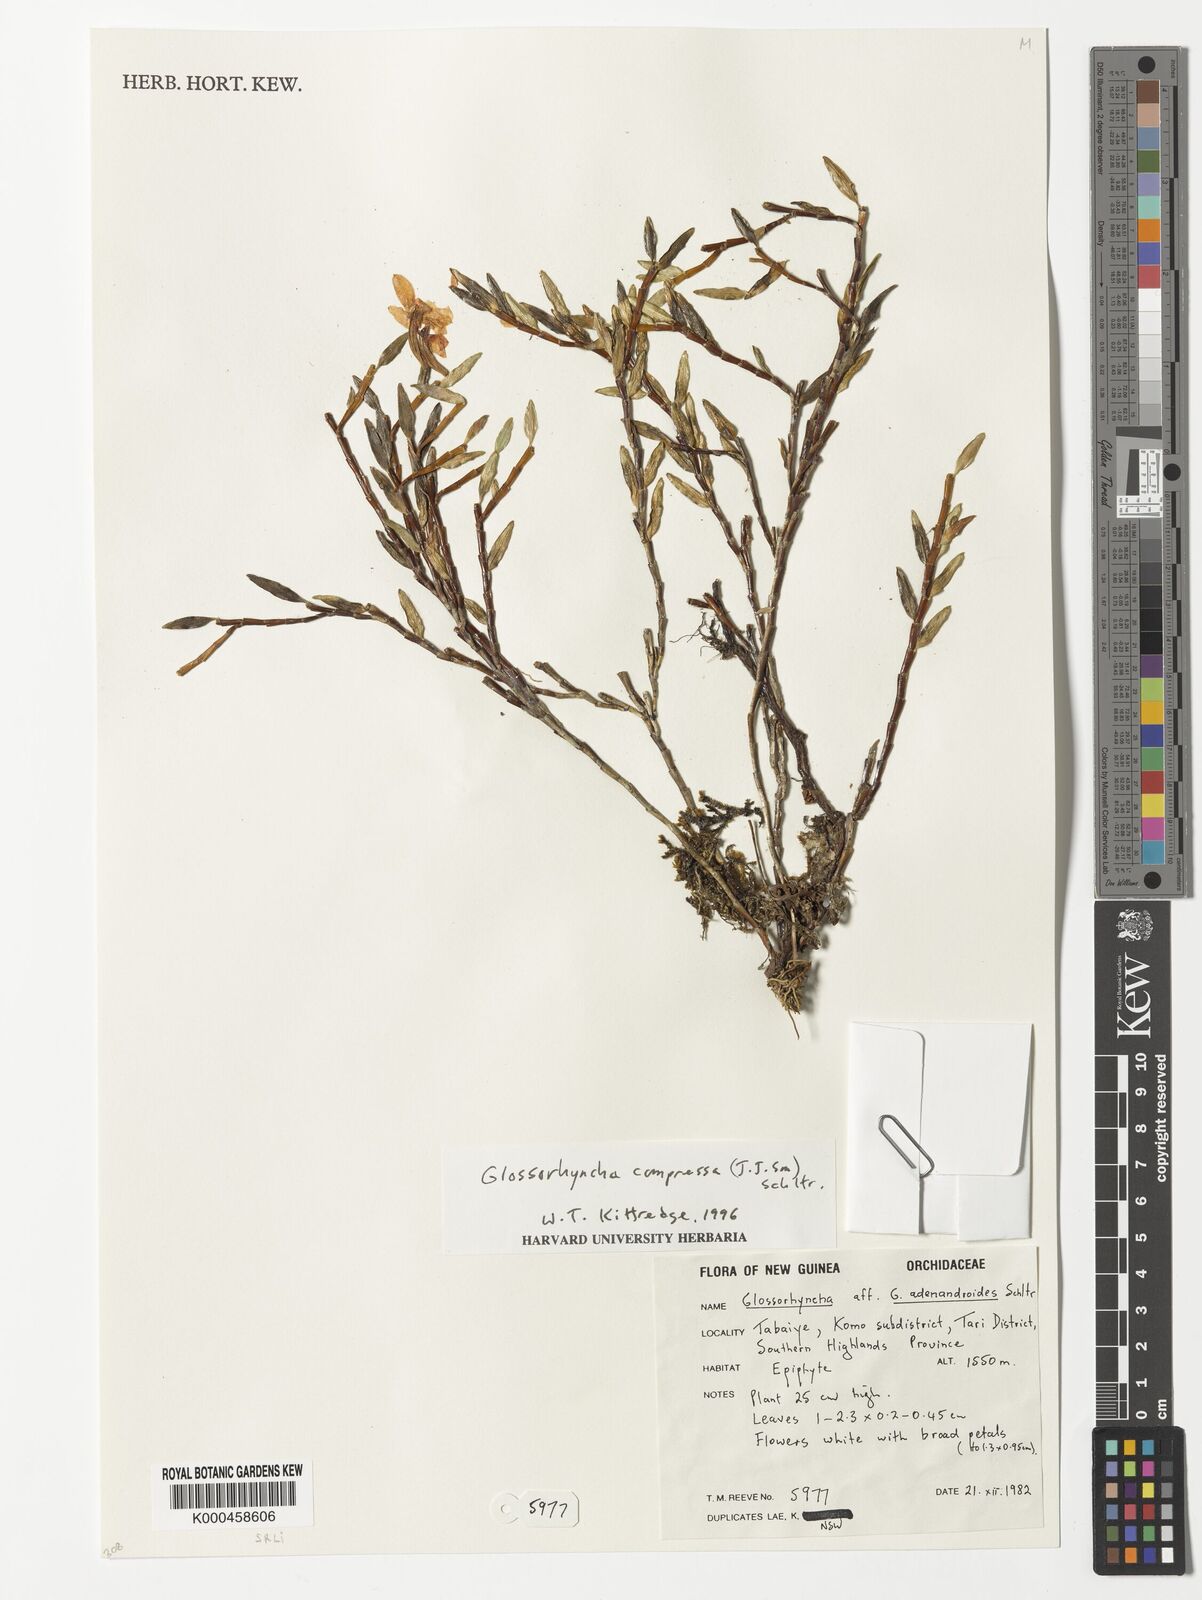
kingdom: Plantae
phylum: Tracheophyta
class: Liliopsida
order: Asparagales
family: Orchidaceae
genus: Glomera
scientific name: Glomera compressa
